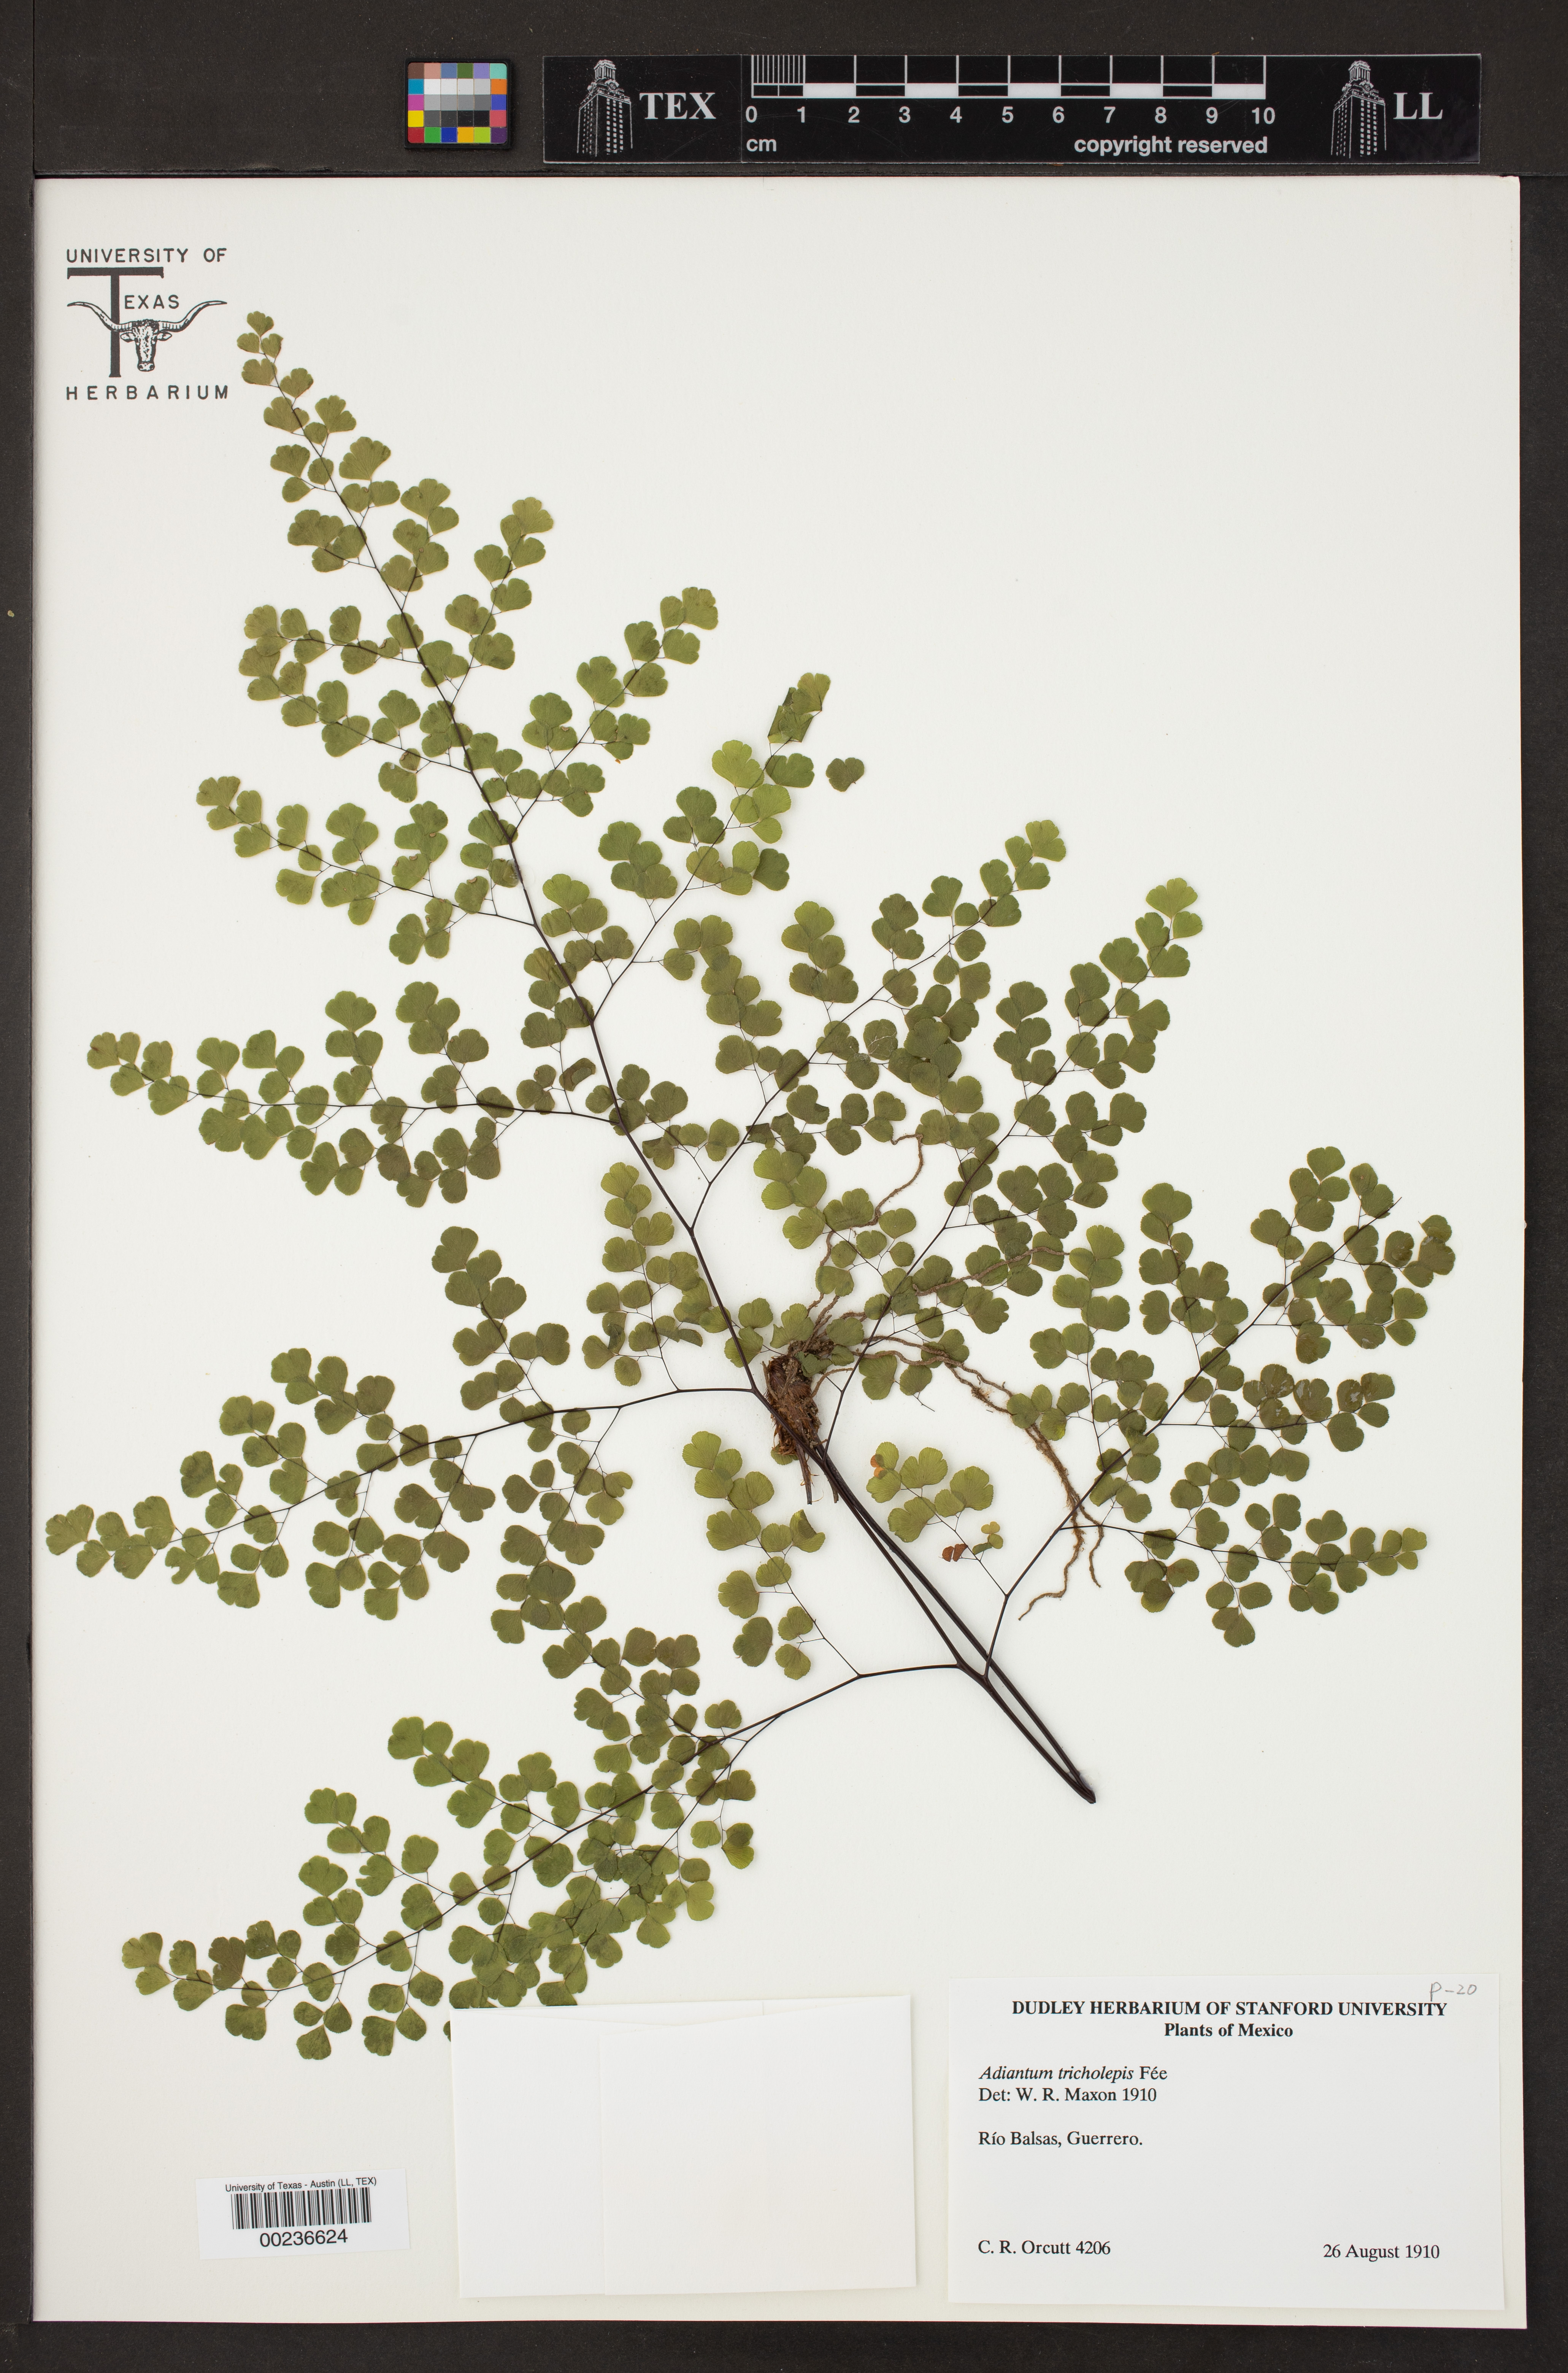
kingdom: Plantae
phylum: Tracheophyta
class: Polypodiopsida
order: Polypodiales
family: Pteridaceae
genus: Adiantum
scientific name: Adiantum tricholepis
